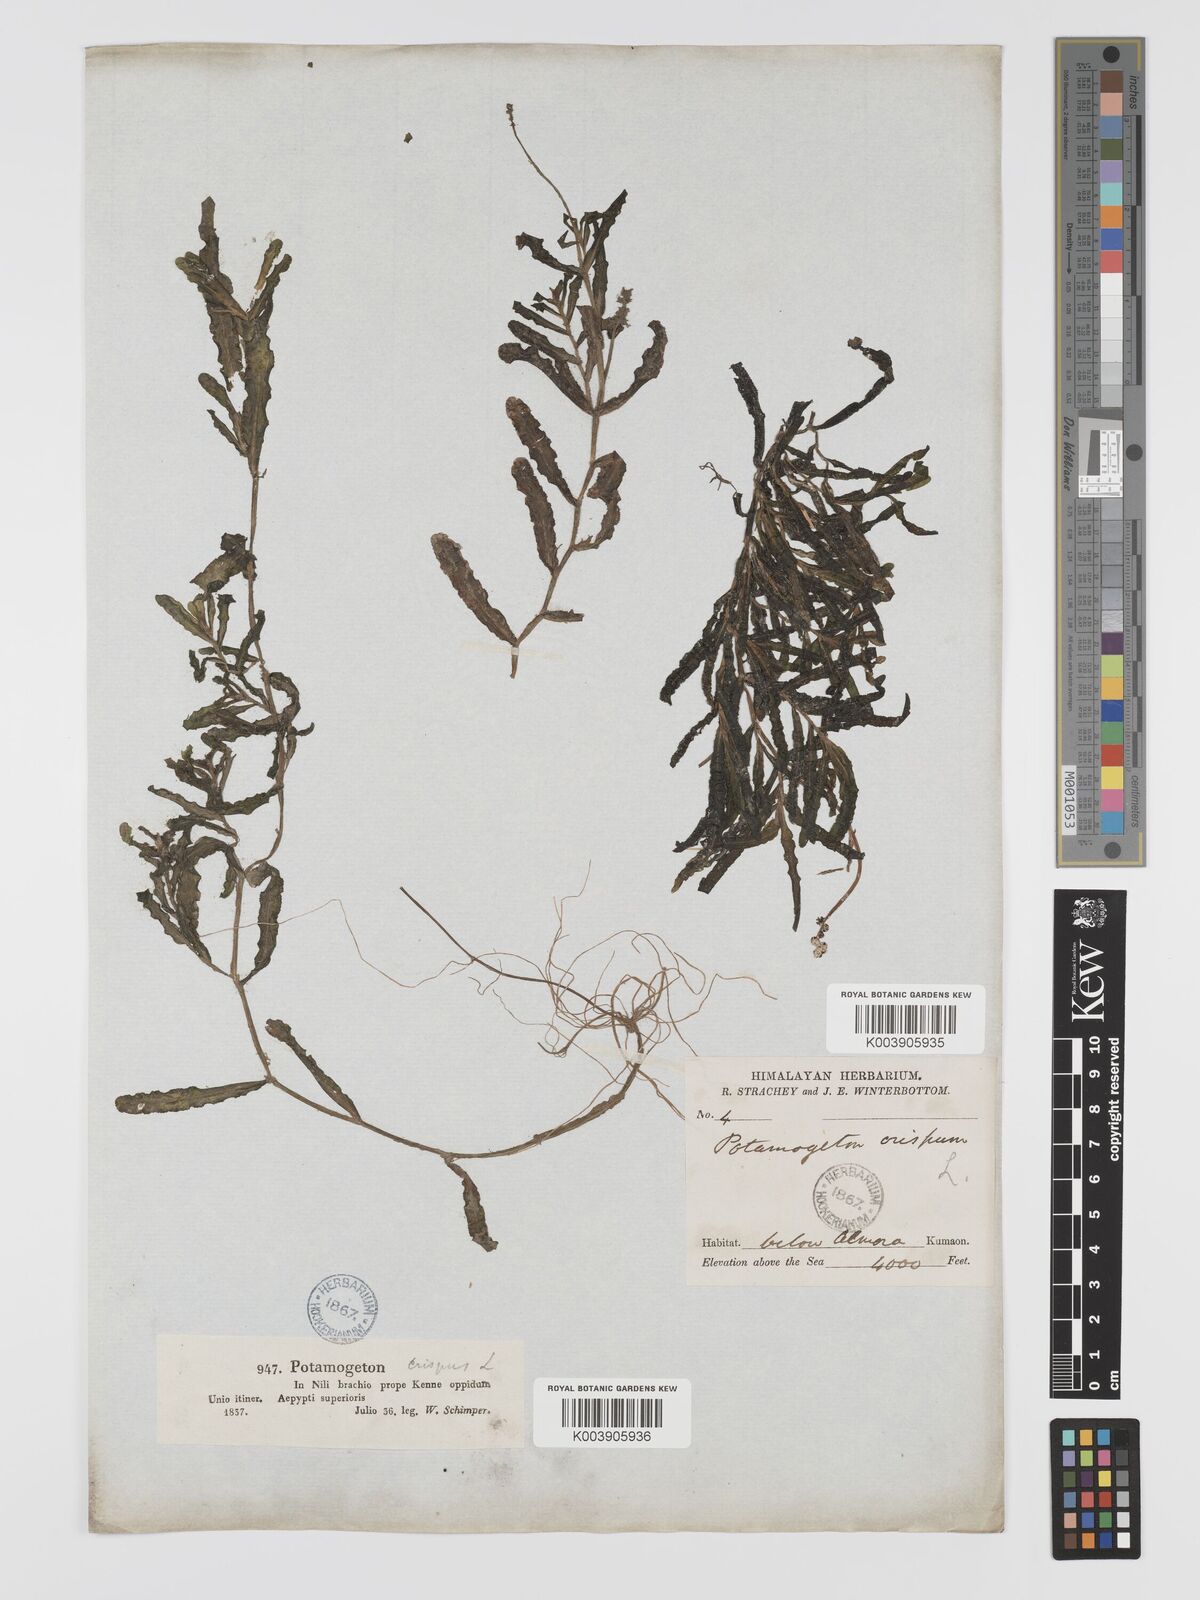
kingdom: Plantae
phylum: Tracheophyta
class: Liliopsida
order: Alismatales
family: Potamogetonaceae
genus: Potamogeton
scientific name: Potamogeton crispus
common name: Curled pondweed
